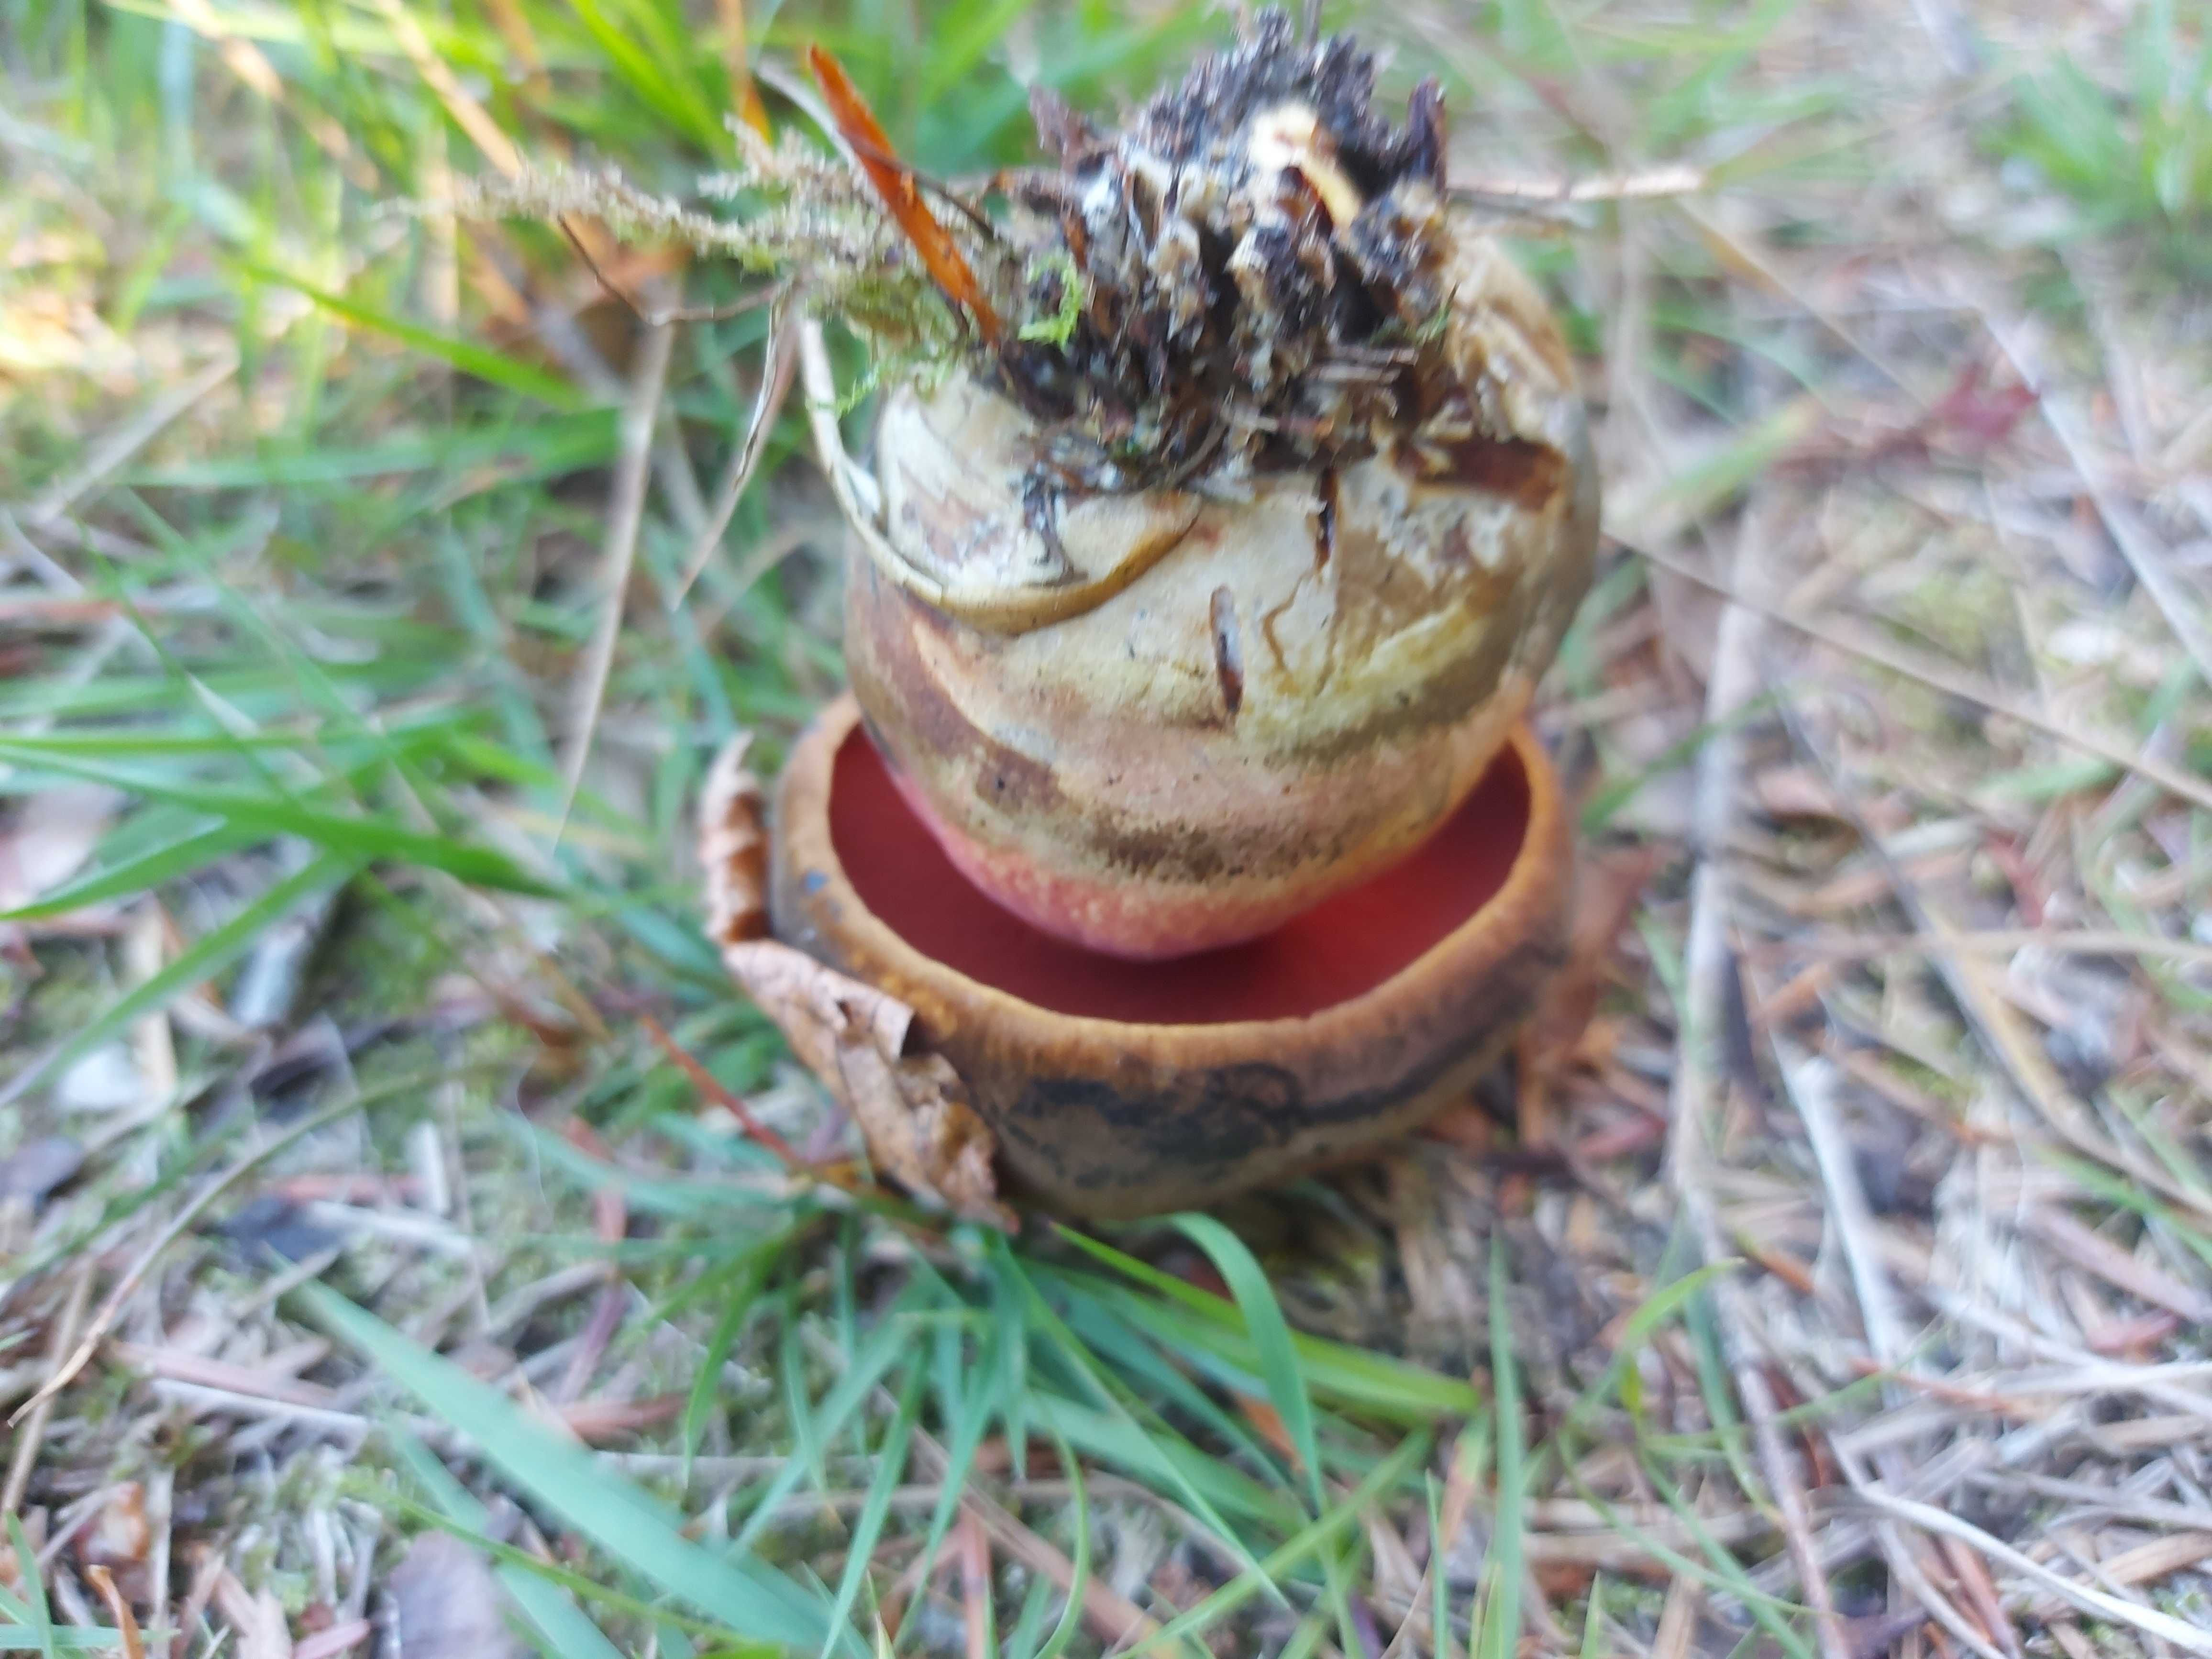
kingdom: Fungi
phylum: Basidiomycota
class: Agaricomycetes
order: Boletales
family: Boletaceae
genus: Neoboletus
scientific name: Neoboletus erythropus
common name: punktstokket indigorørhat
